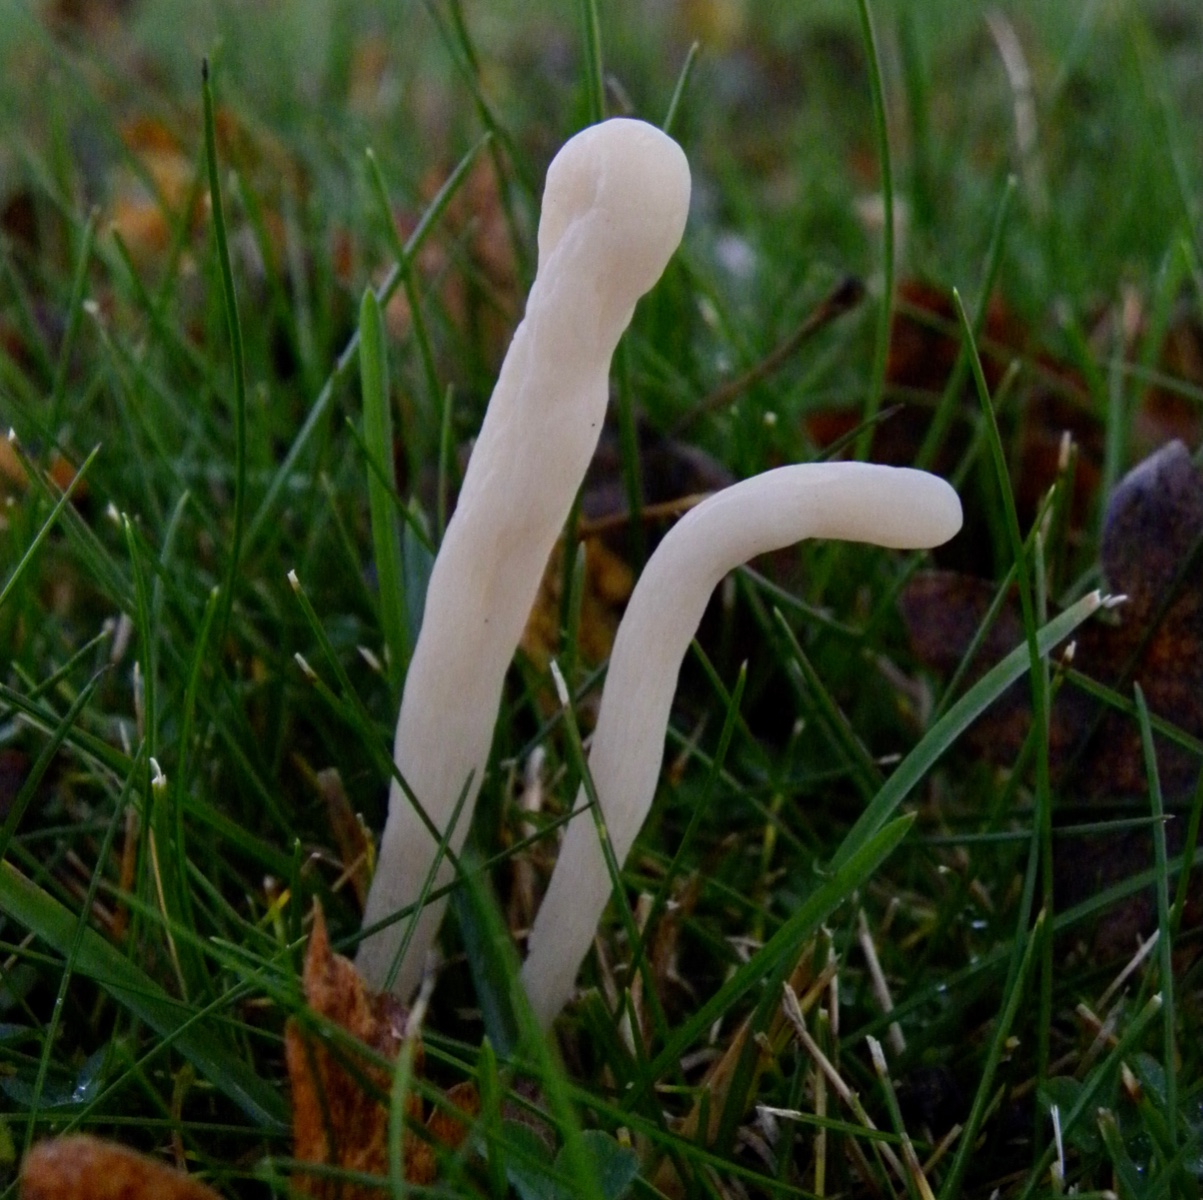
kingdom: Fungi
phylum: Basidiomycota
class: Agaricomycetes
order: Agaricales
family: Clavariaceae
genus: Clavaria
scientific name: Clavaria
